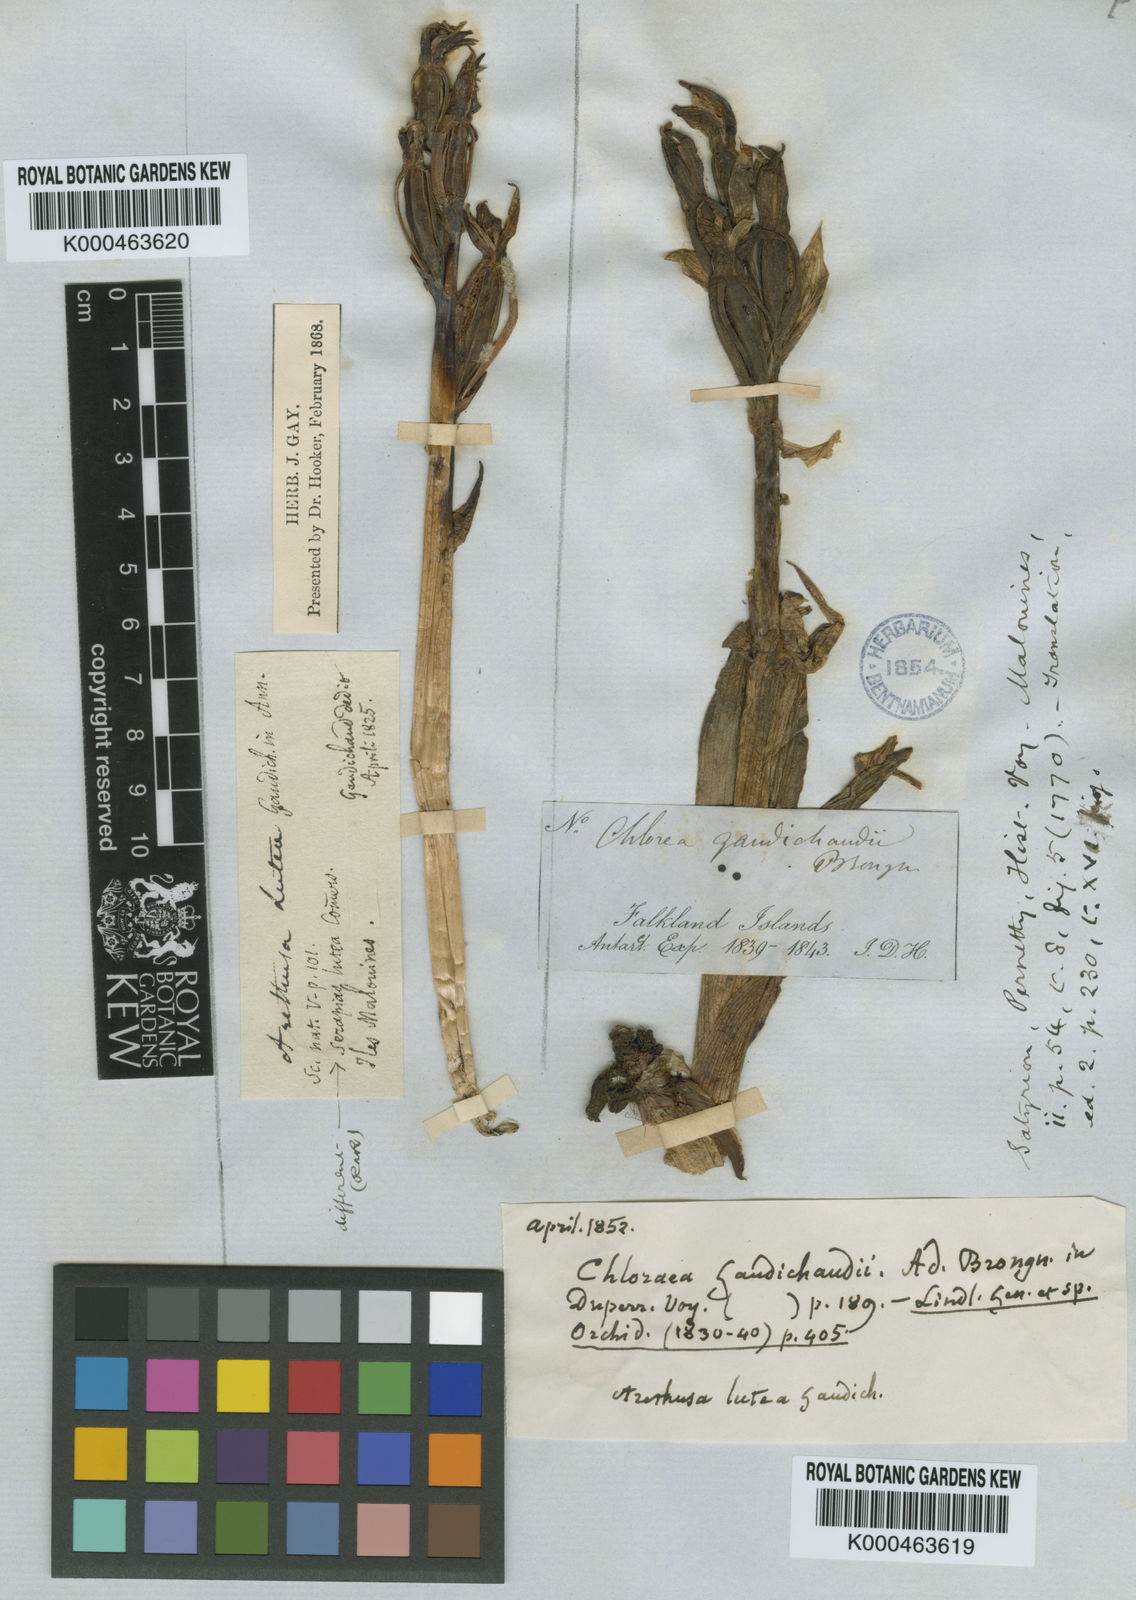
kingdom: Plantae
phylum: Tracheophyta
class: Liliopsida
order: Asparagales
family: Orchidaceae
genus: Chloraea
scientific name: Chloraea fonkii
